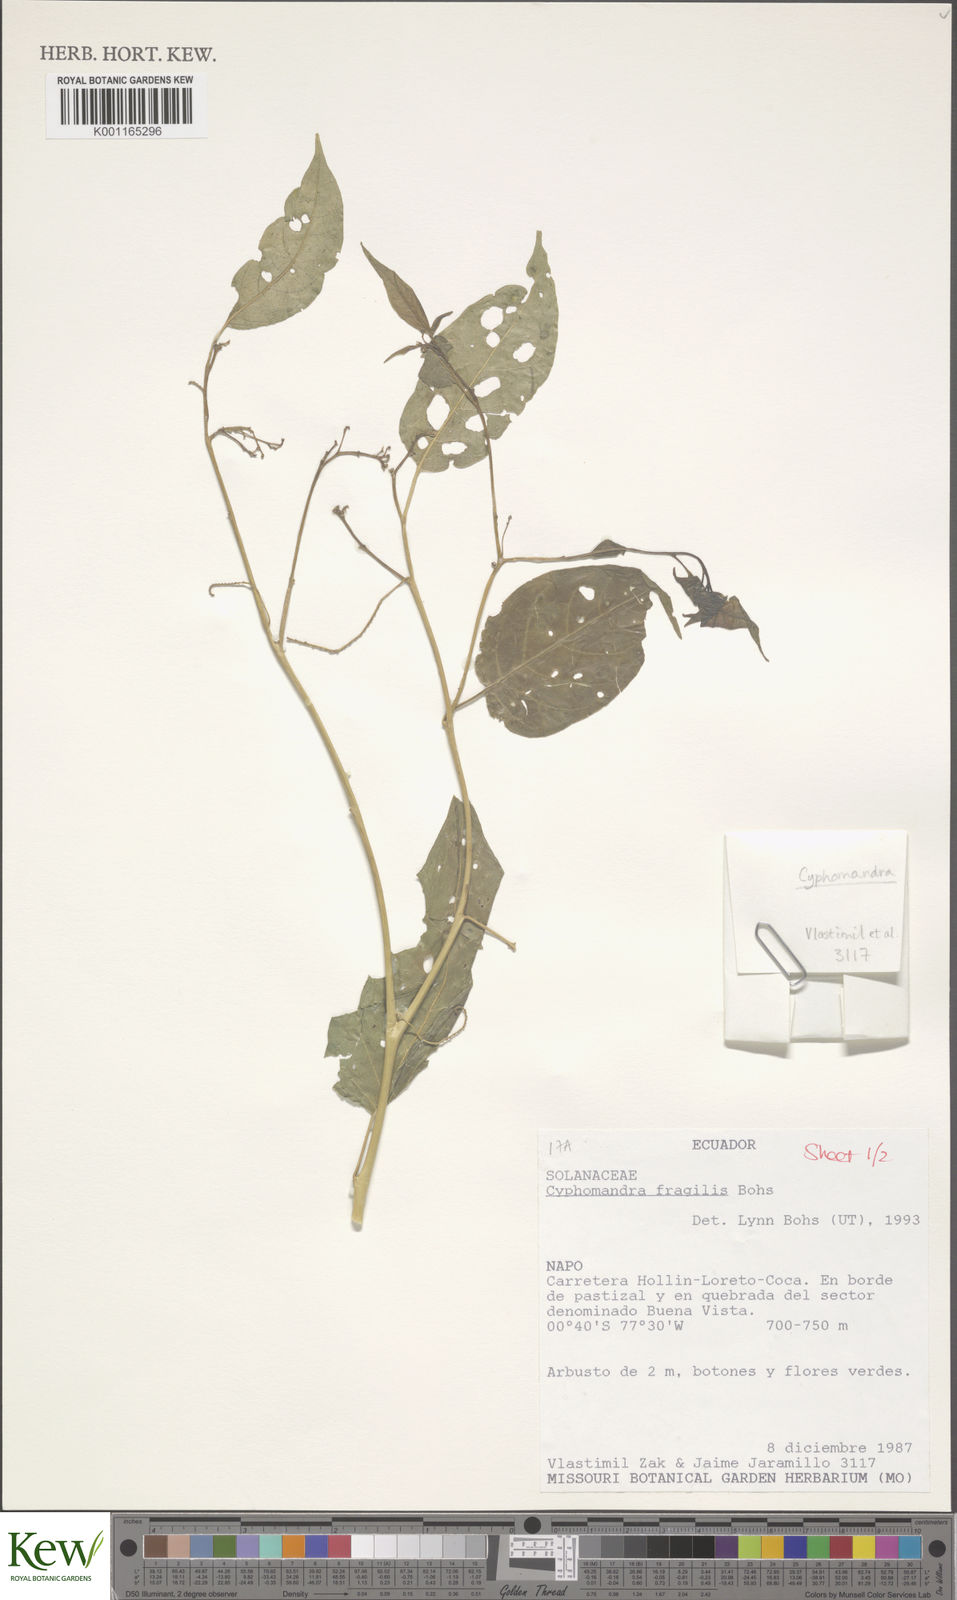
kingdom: Plantae
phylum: Tracheophyta
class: Magnoliopsida
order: Solanales
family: Solanaceae
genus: Solanum
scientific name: Solanum oxyphyllum
